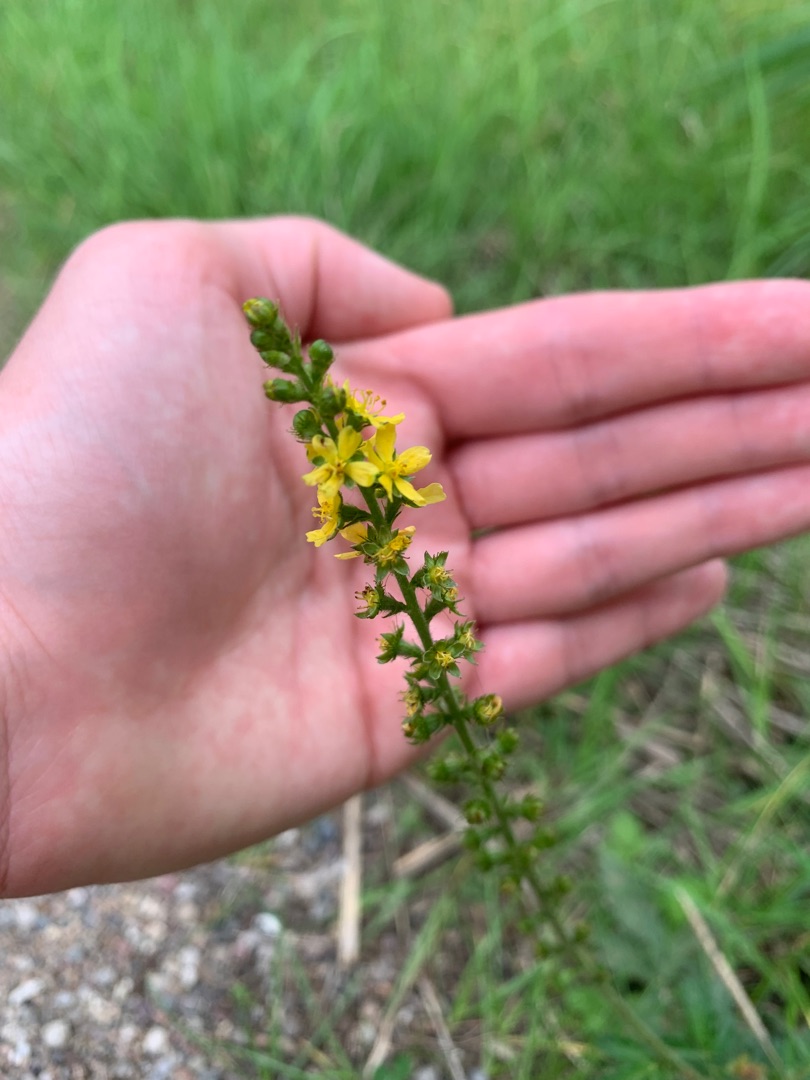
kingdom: Plantae
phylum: Tracheophyta
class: Magnoliopsida
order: Rosales
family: Rosaceae
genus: Agrimonia
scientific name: Agrimonia eupatoria
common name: Almindelig agermåne
